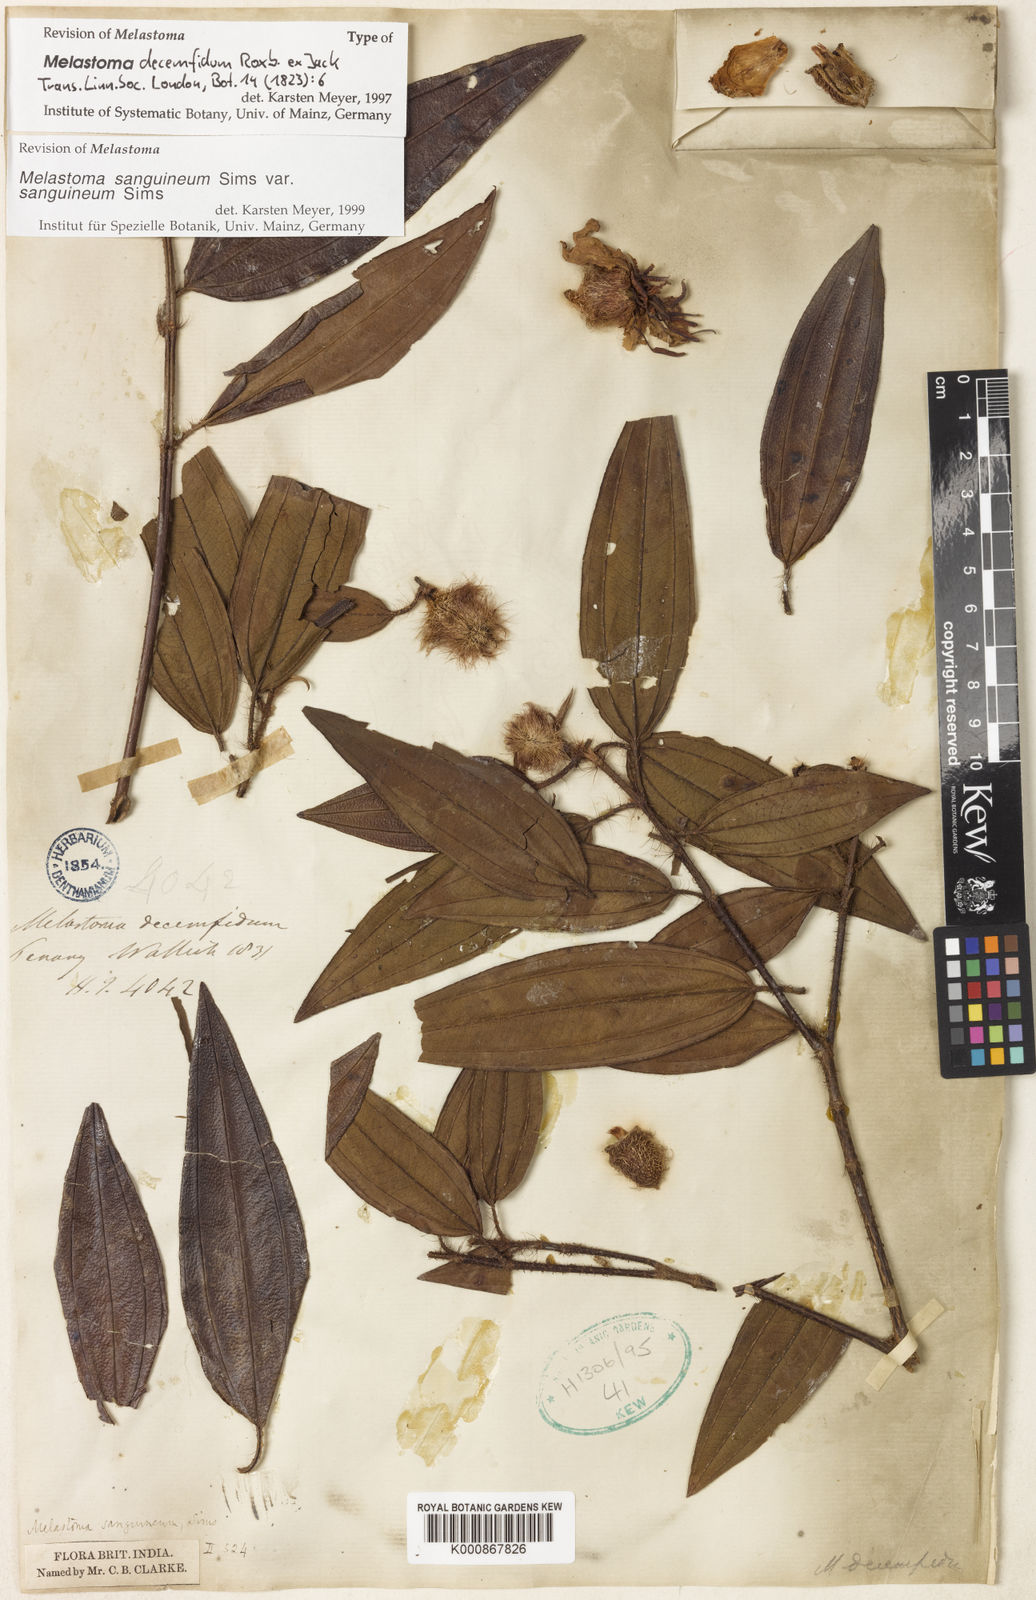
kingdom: Plantae
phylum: Tracheophyta
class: Magnoliopsida
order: Myrtales
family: Melastomataceae
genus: Melastoma
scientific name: Melastoma sanguineum
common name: Red melastome
